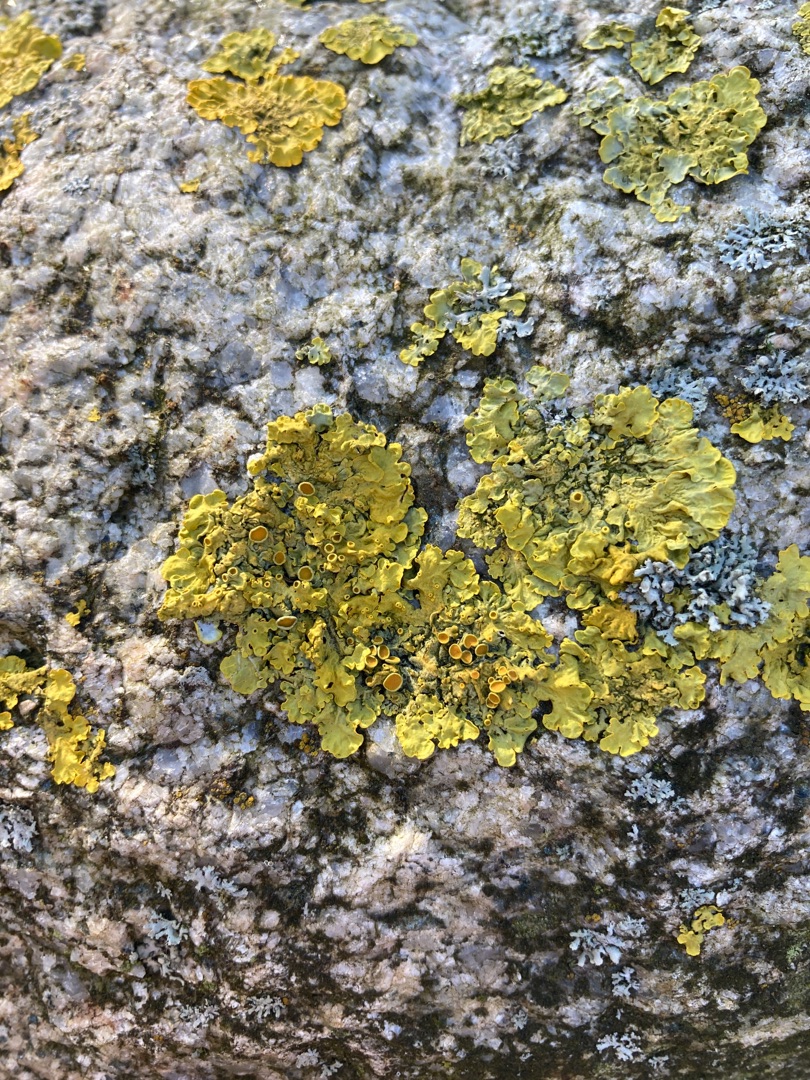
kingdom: Fungi
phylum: Ascomycota
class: Lecanoromycetes
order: Teloschistales
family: Teloschistaceae
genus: Xanthoria
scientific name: Xanthoria parietina
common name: Almindelig væggelav
